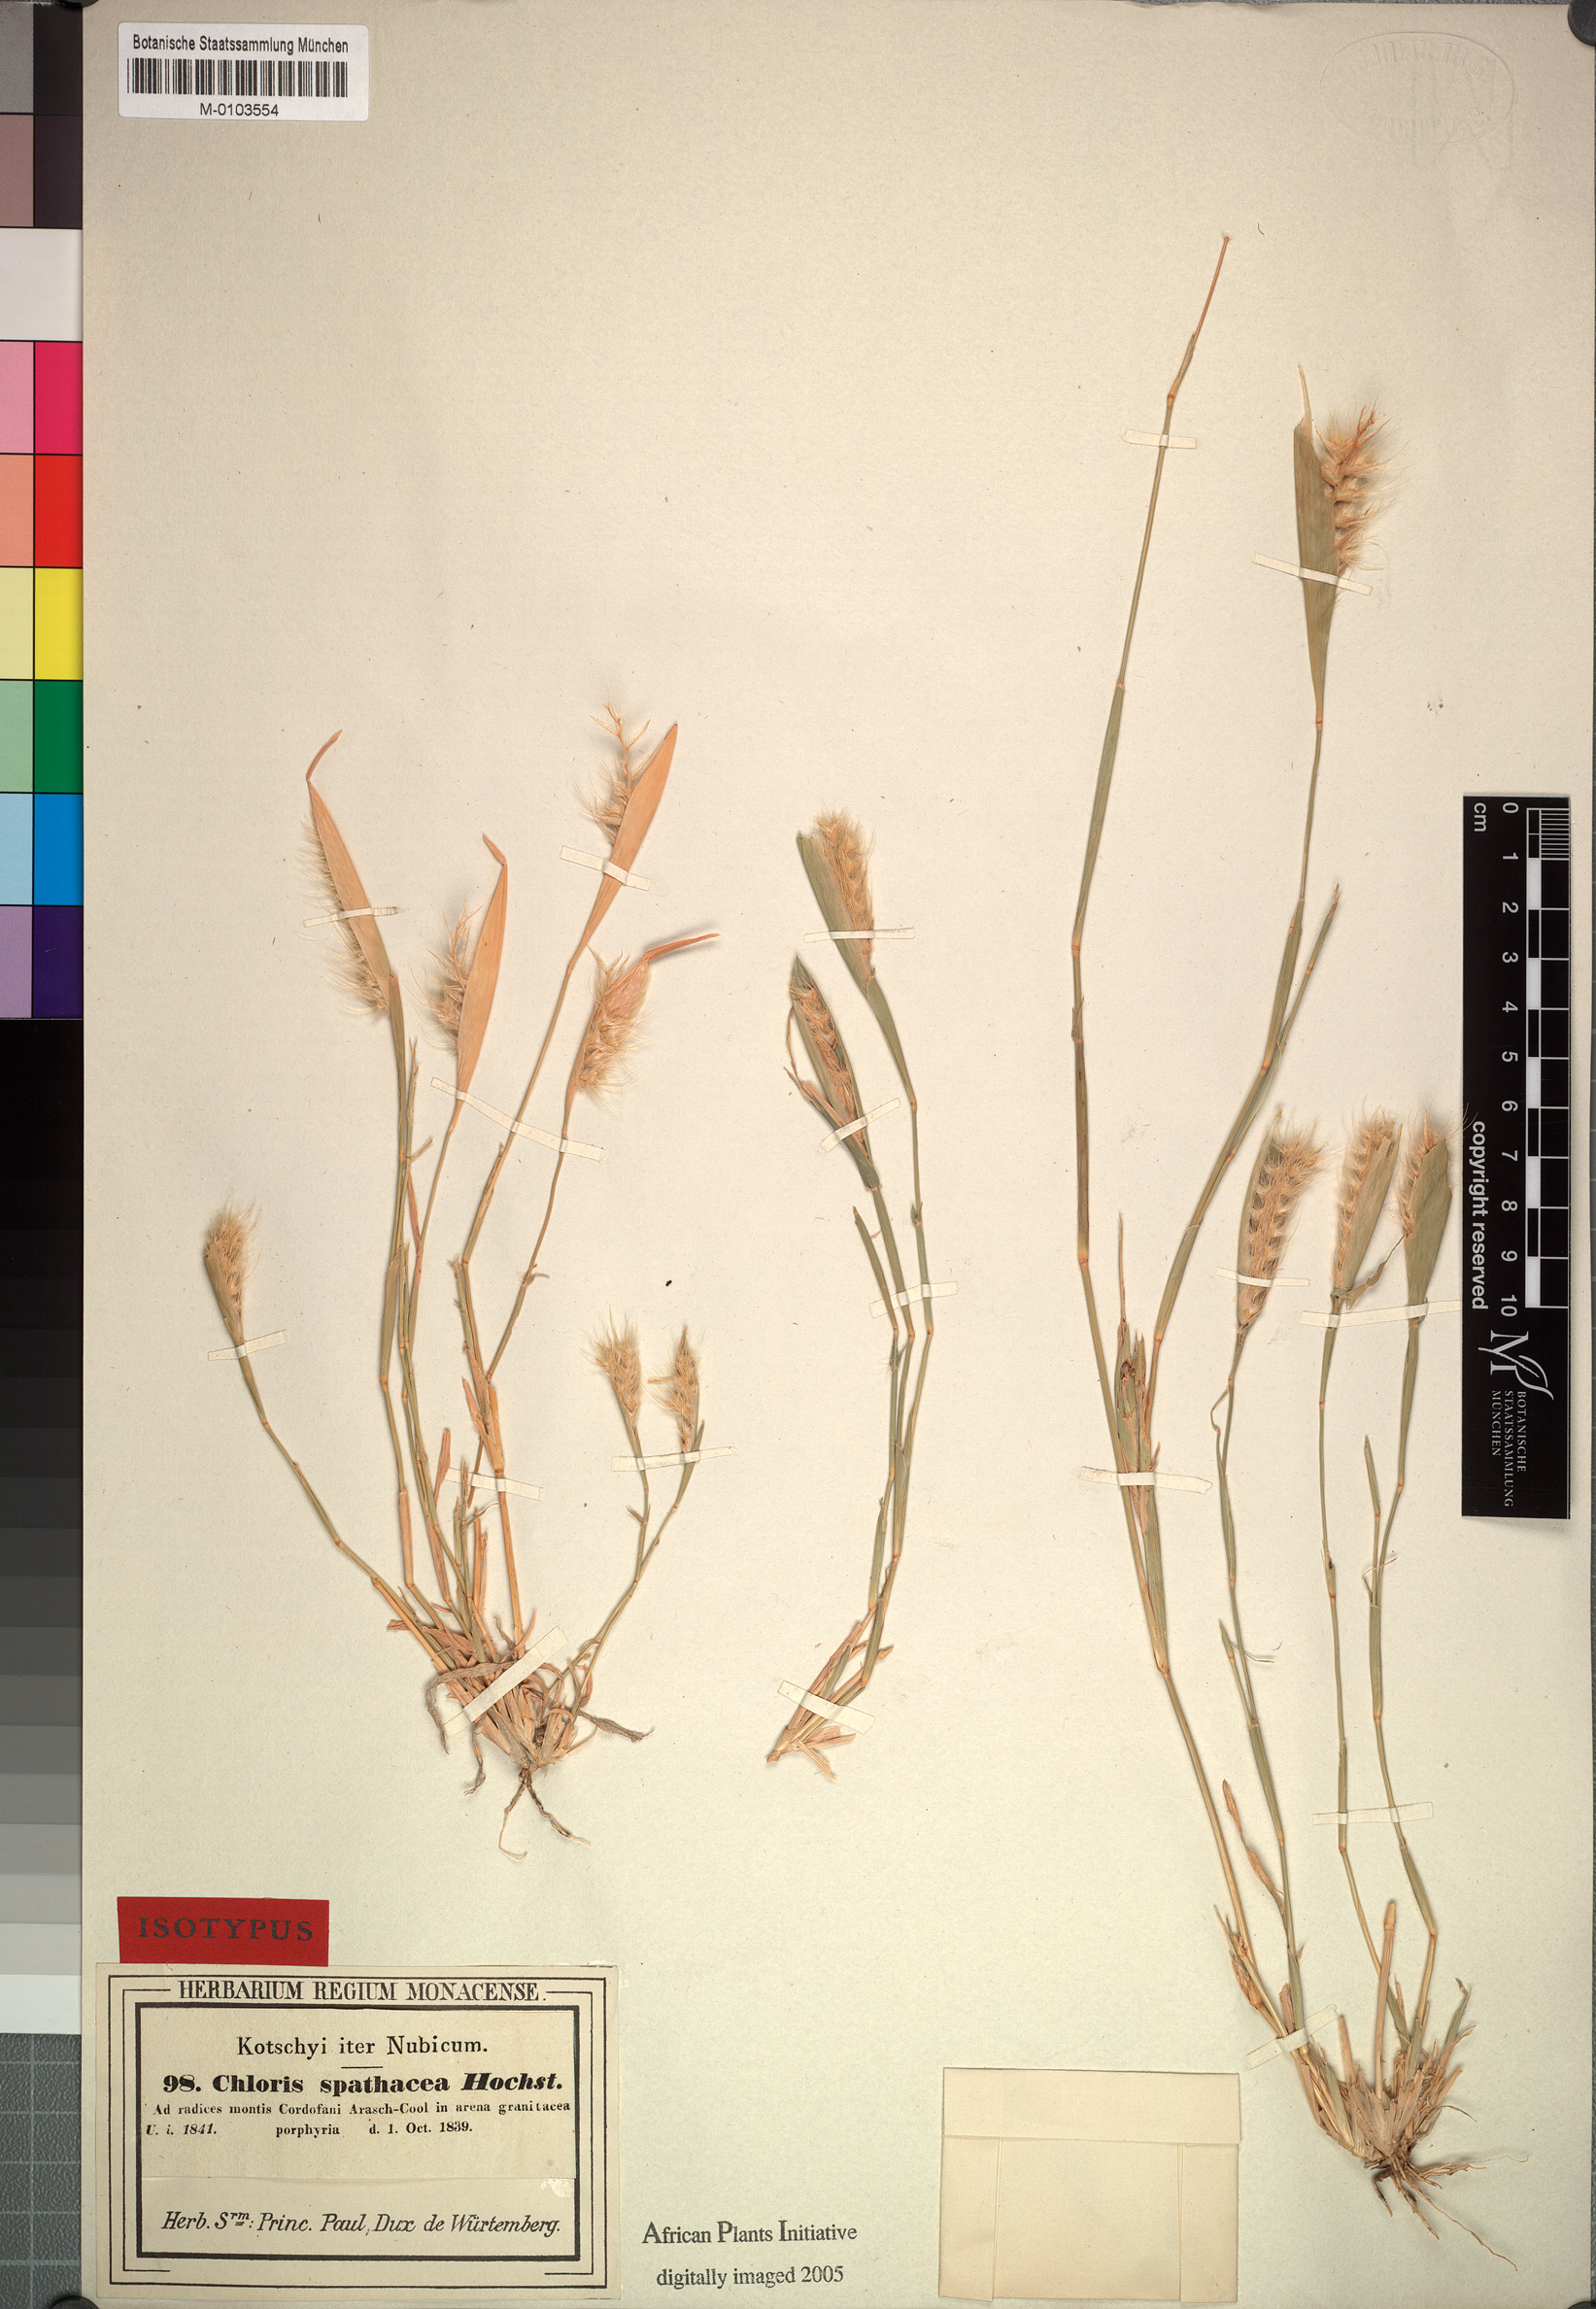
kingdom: Plantae
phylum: Tracheophyta
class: Liliopsida
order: Poales
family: Poaceae
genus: Tetrapogon
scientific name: Tetrapogon cenchriformis
